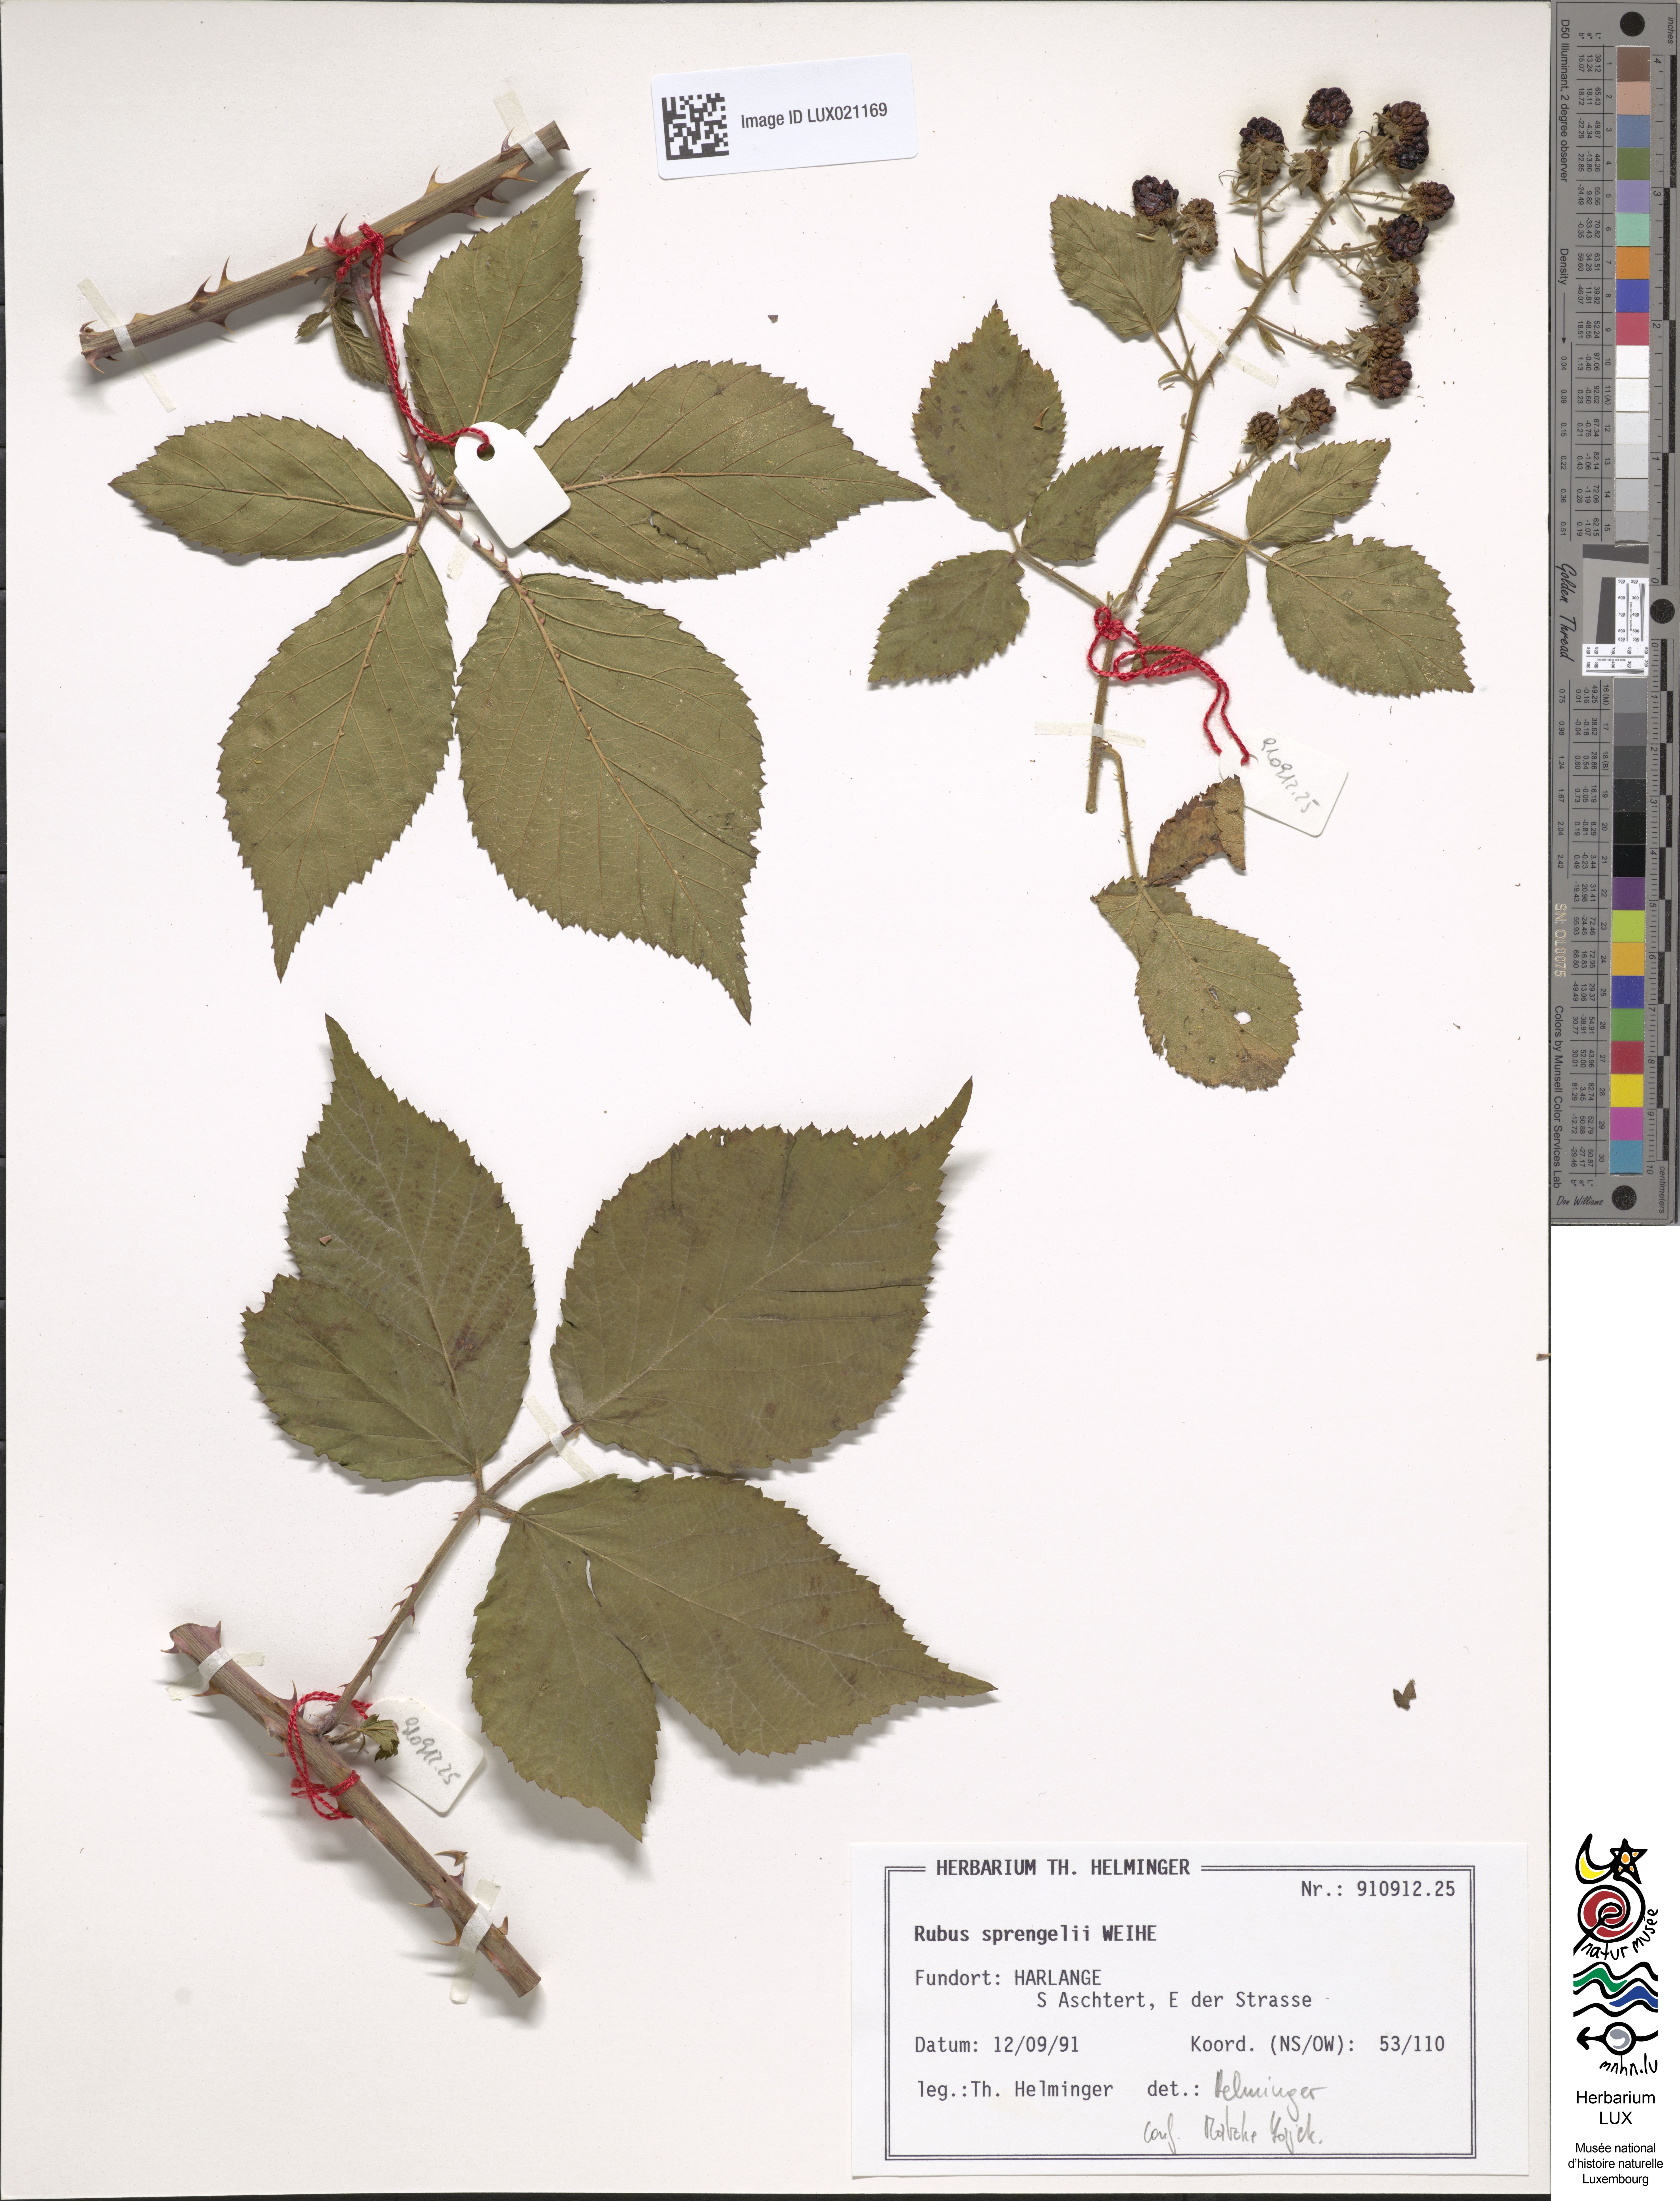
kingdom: Plantae
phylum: Tracheophyta
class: Magnoliopsida
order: Rosales
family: Rosaceae
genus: Rubus
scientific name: Rubus sprengelii
